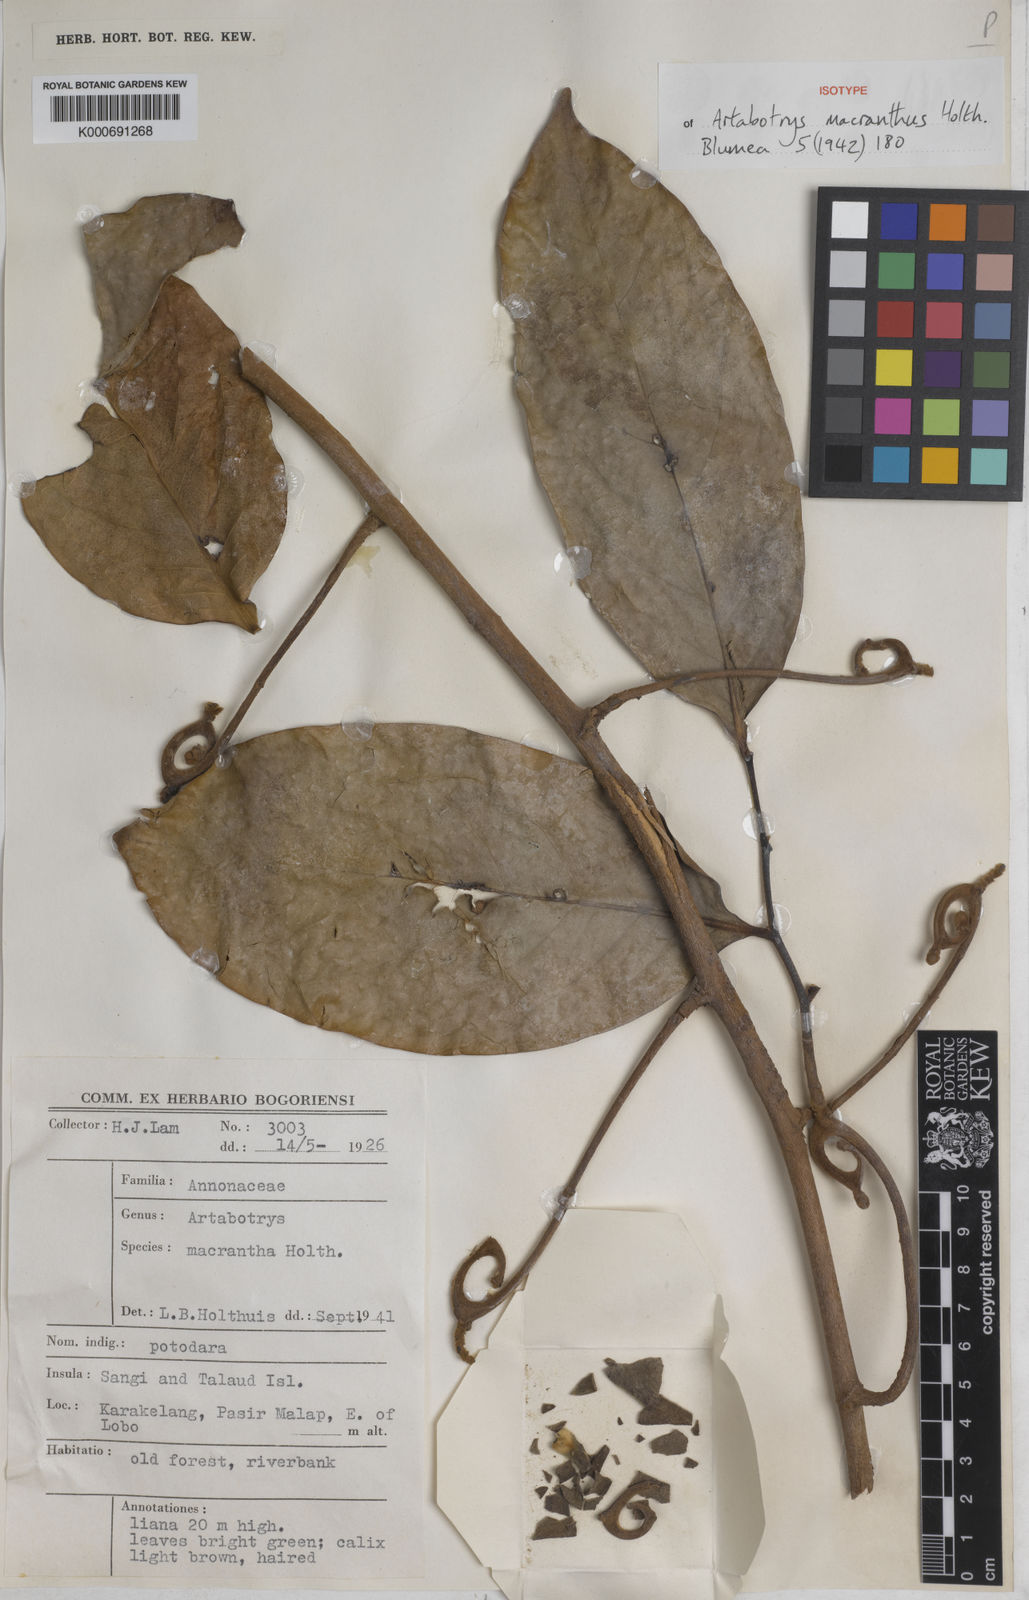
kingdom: Plantae
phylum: Tracheophyta
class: Magnoliopsida
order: Magnoliales
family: Annonaceae
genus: Artabotrys
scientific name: Artabotrys lanuginosus
